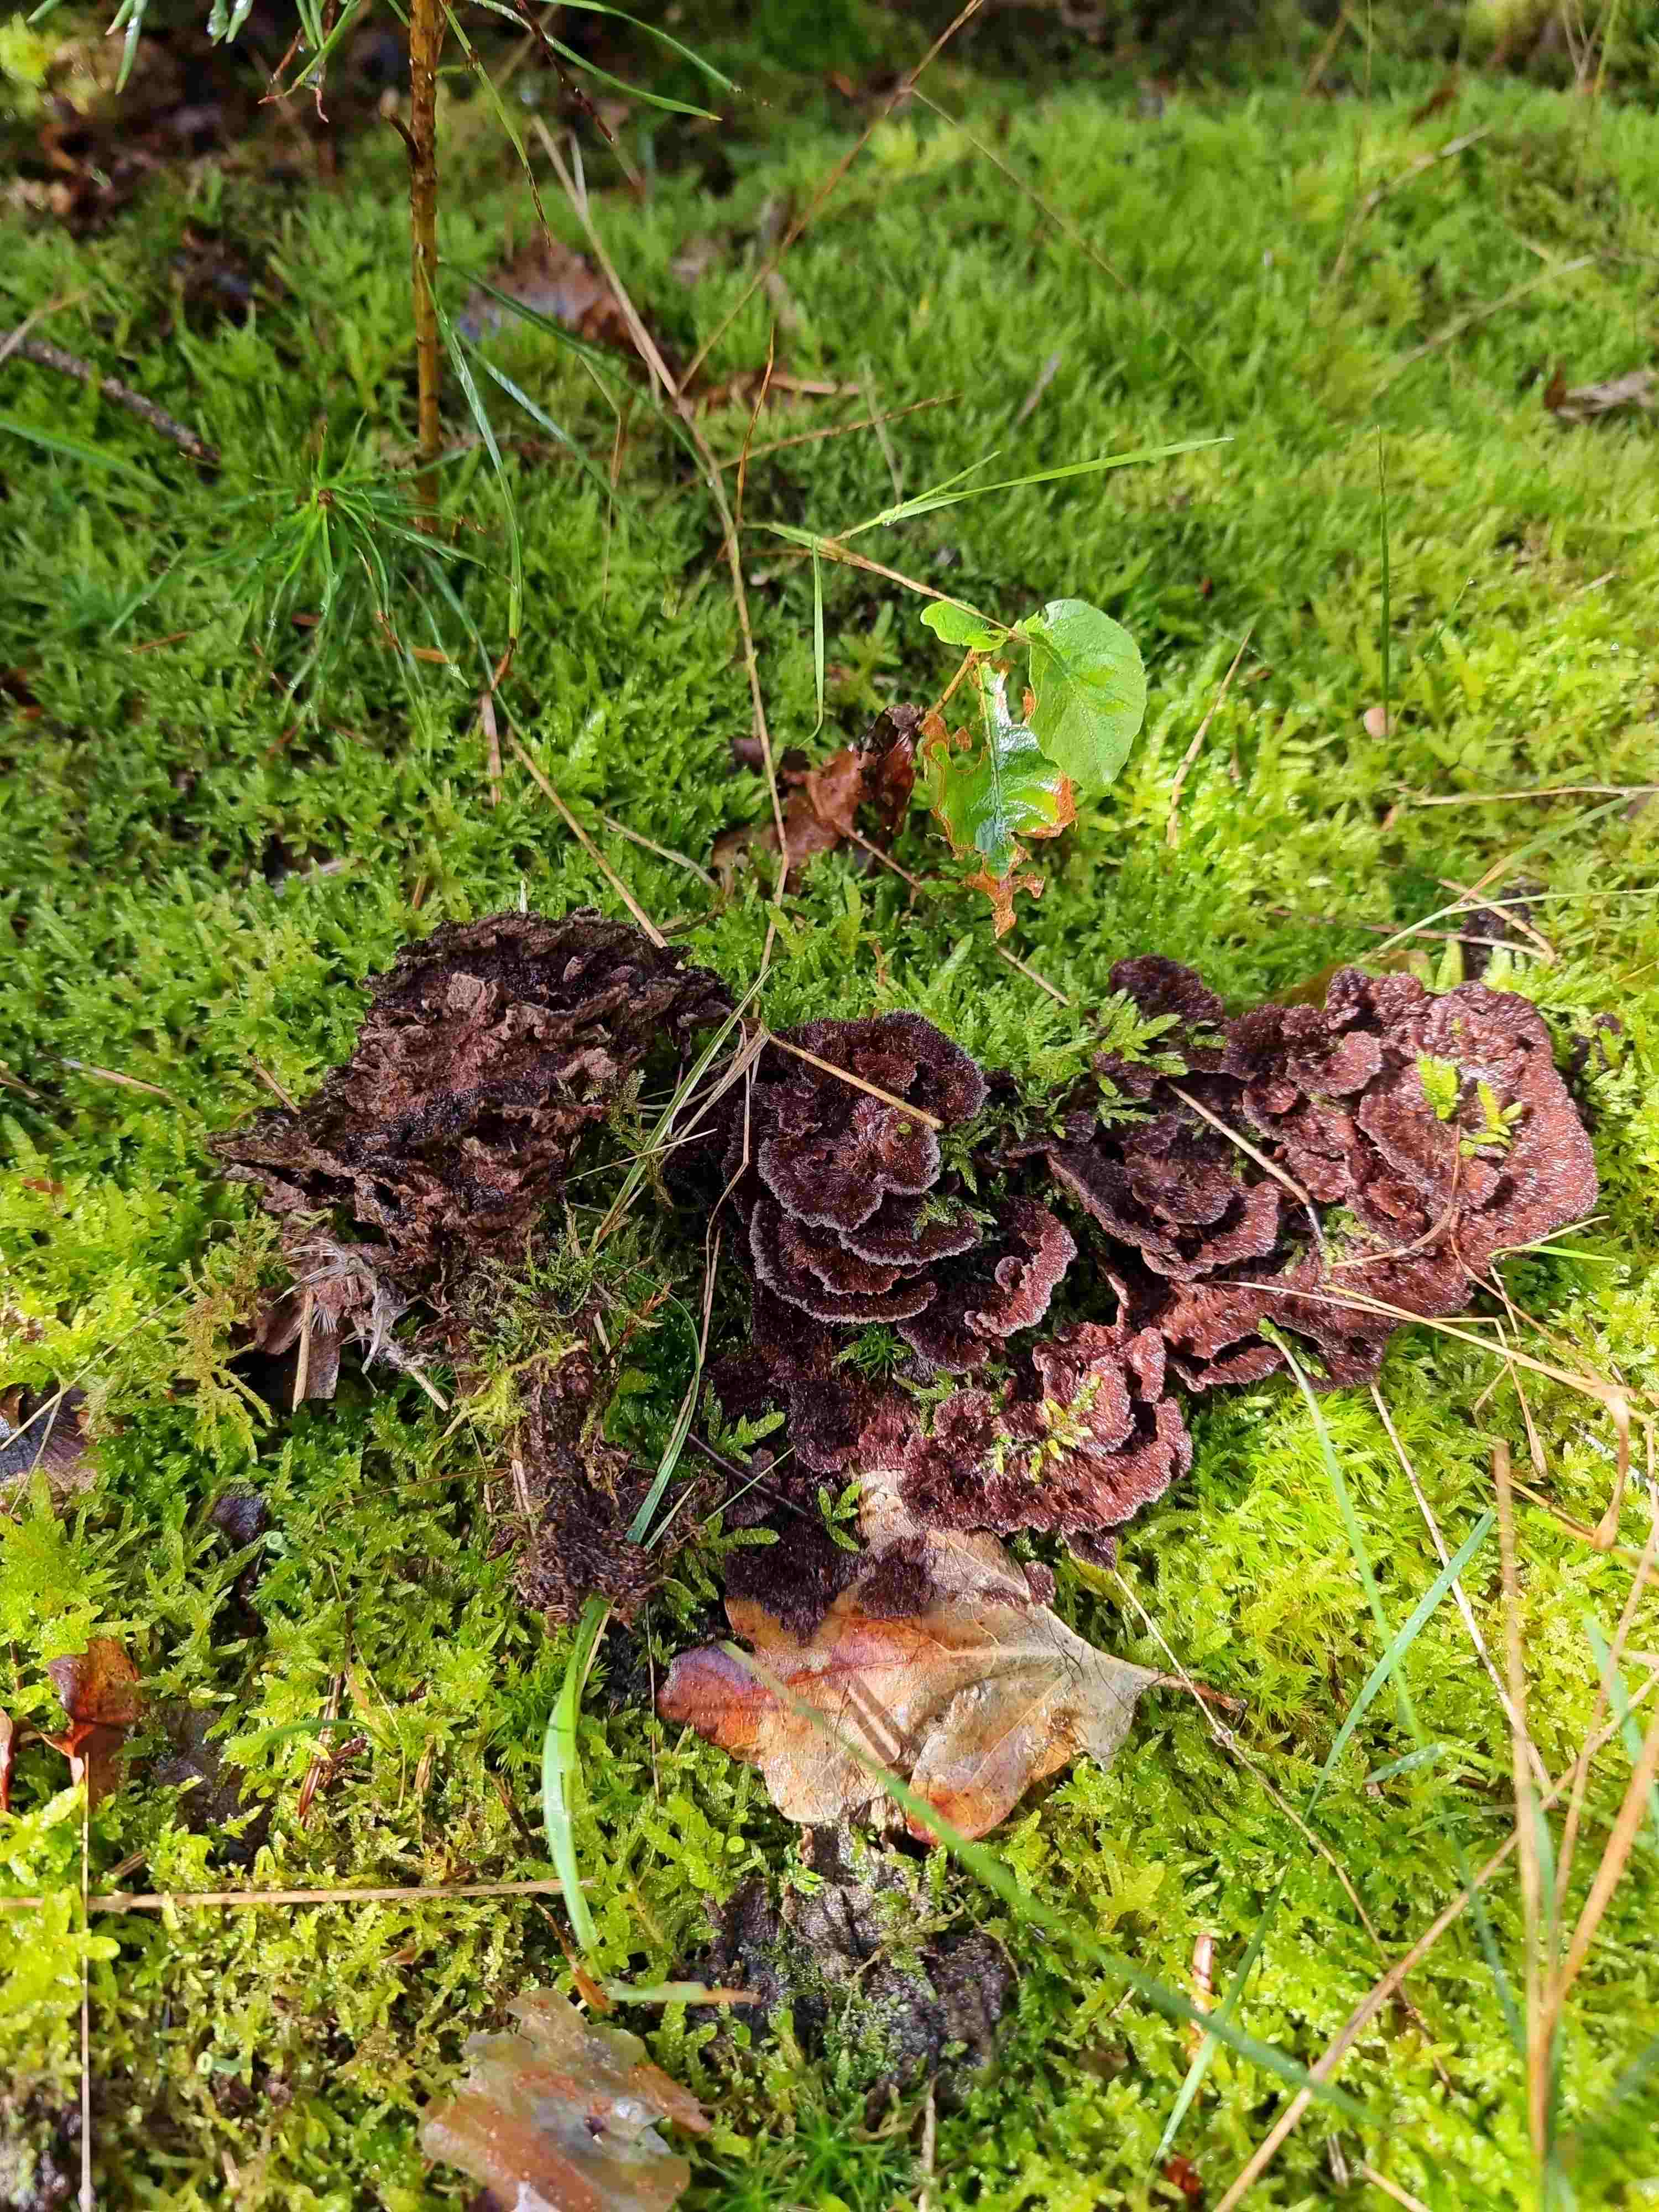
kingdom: Fungi
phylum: Basidiomycota
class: Agaricomycetes
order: Thelephorales
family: Thelephoraceae
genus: Thelephora
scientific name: Thelephora terrestris
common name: fliget frynsesvamp
